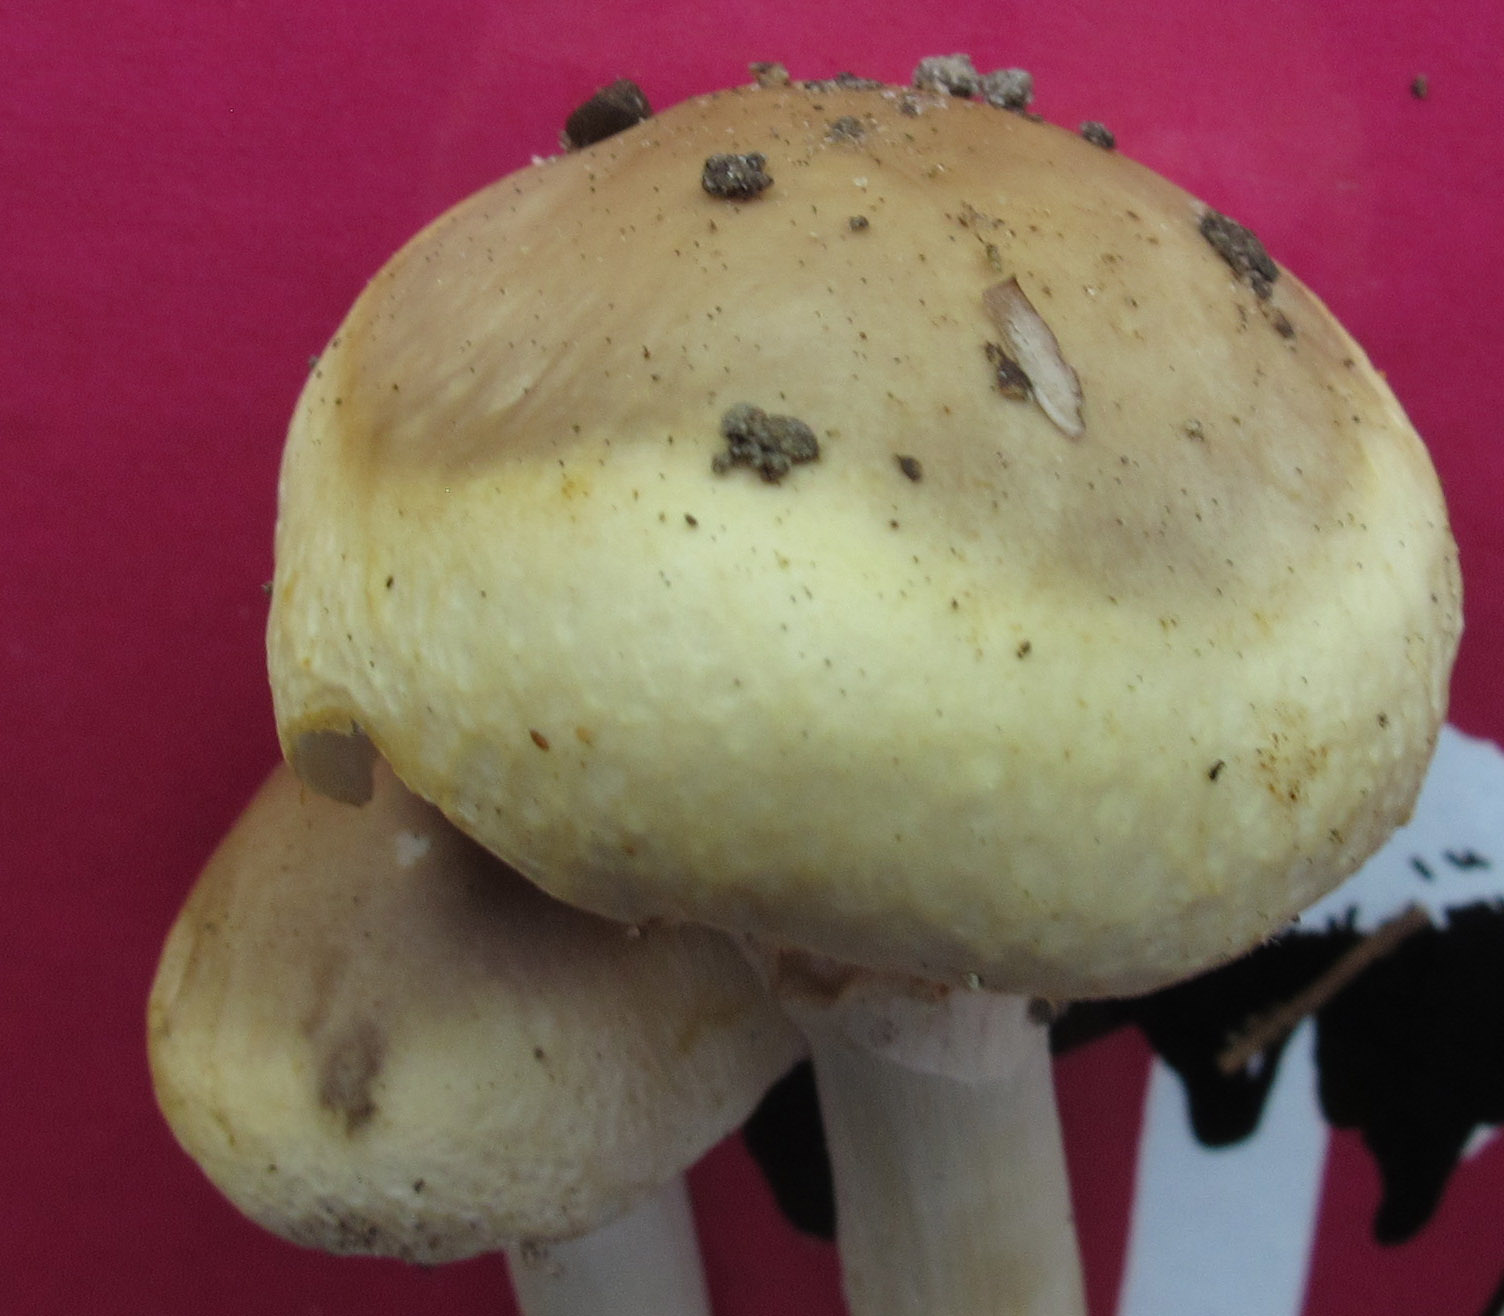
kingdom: Fungi
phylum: Basidiomycota
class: Agaricomycetes
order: Agaricales
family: Strophariaceae
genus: Agrocybe
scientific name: Agrocybe praecox
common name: tidlig agerhat
